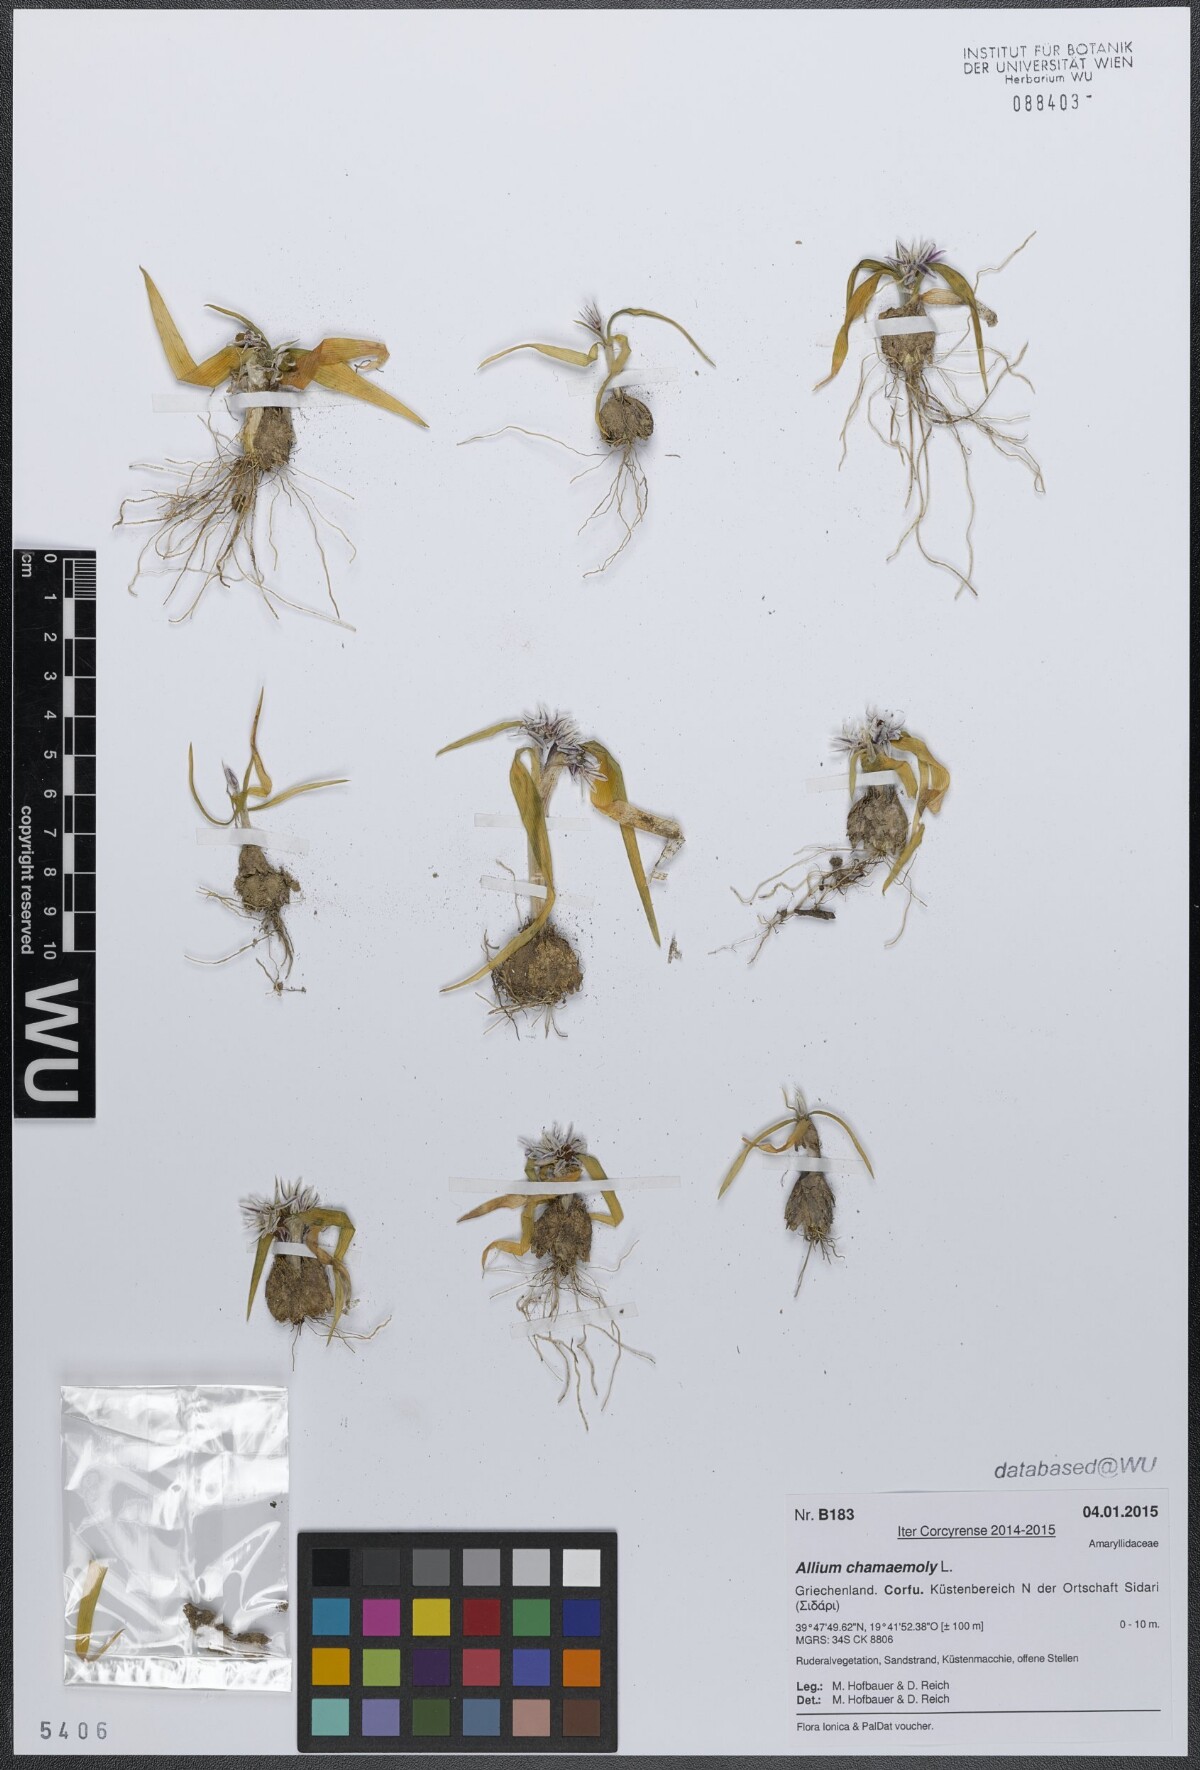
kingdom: Plantae
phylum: Tracheophyta
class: Liliopsida
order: Asparagales
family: Amaryllidaceae
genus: Allium
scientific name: Allium chamaemoly
